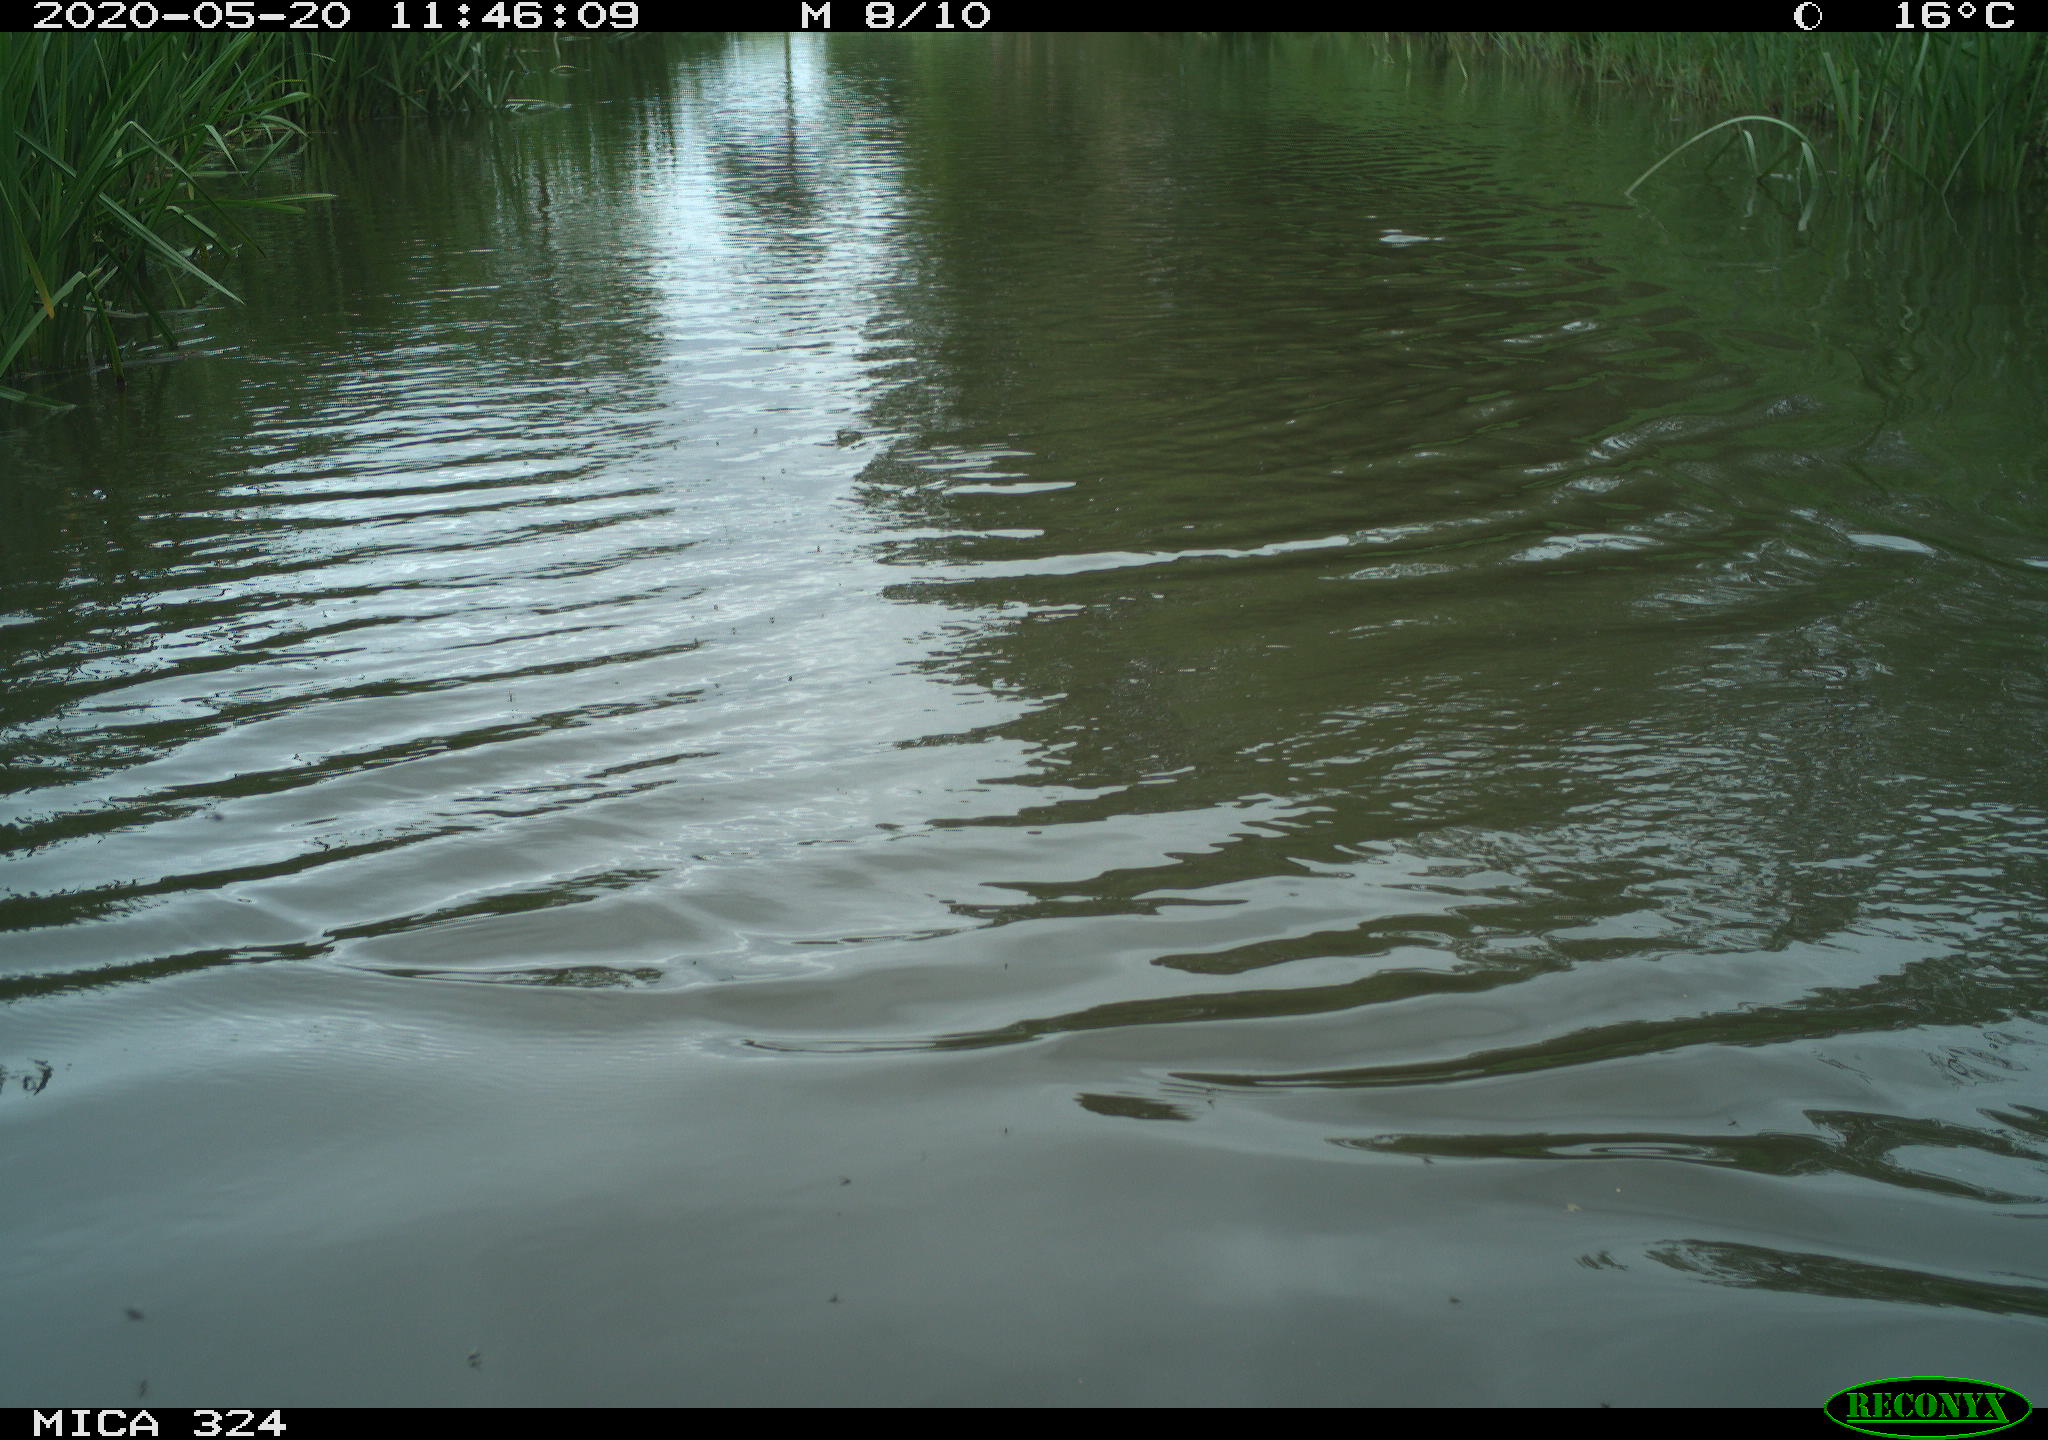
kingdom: Animalia
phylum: Chordata
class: Aves
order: Gruiformes
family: Rallidae
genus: Fulica
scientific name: Fulica atra
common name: Eurasian coot
